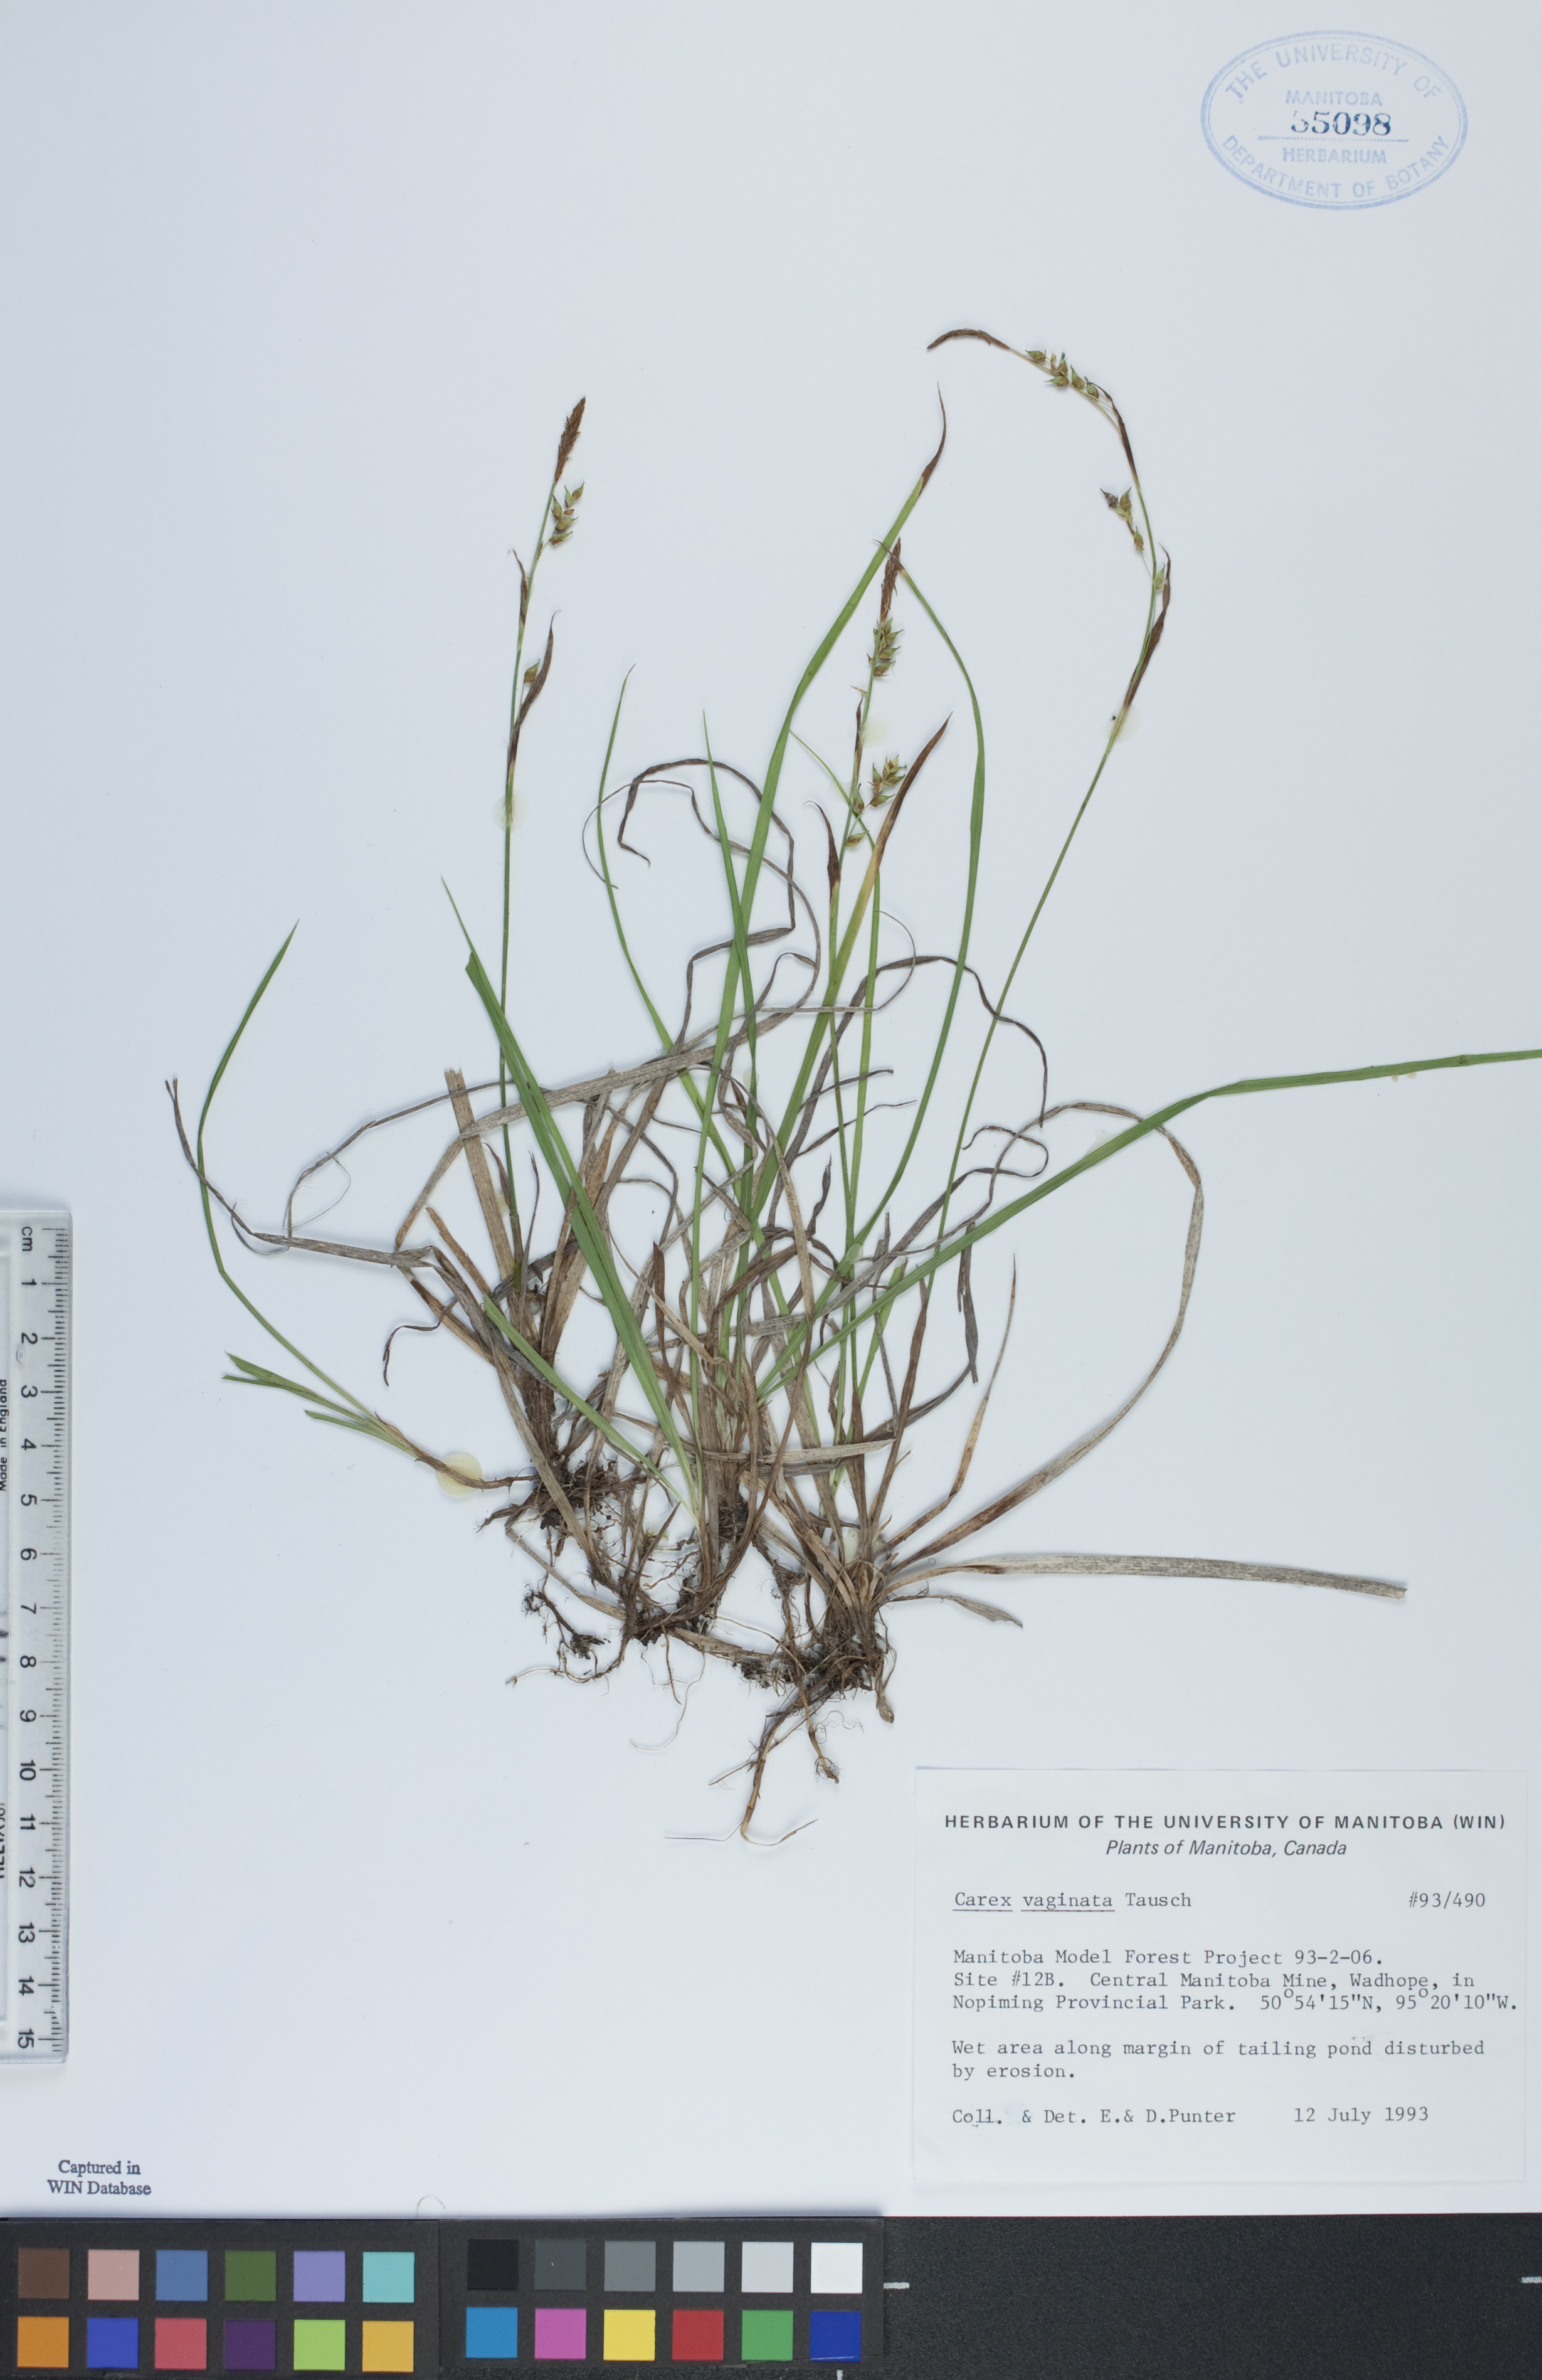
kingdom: Plantae
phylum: Tracheophyta
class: Liliopsida
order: Poales
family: Cyperaceae
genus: Carex
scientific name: Carex vaginata
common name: Sheathed sedge
